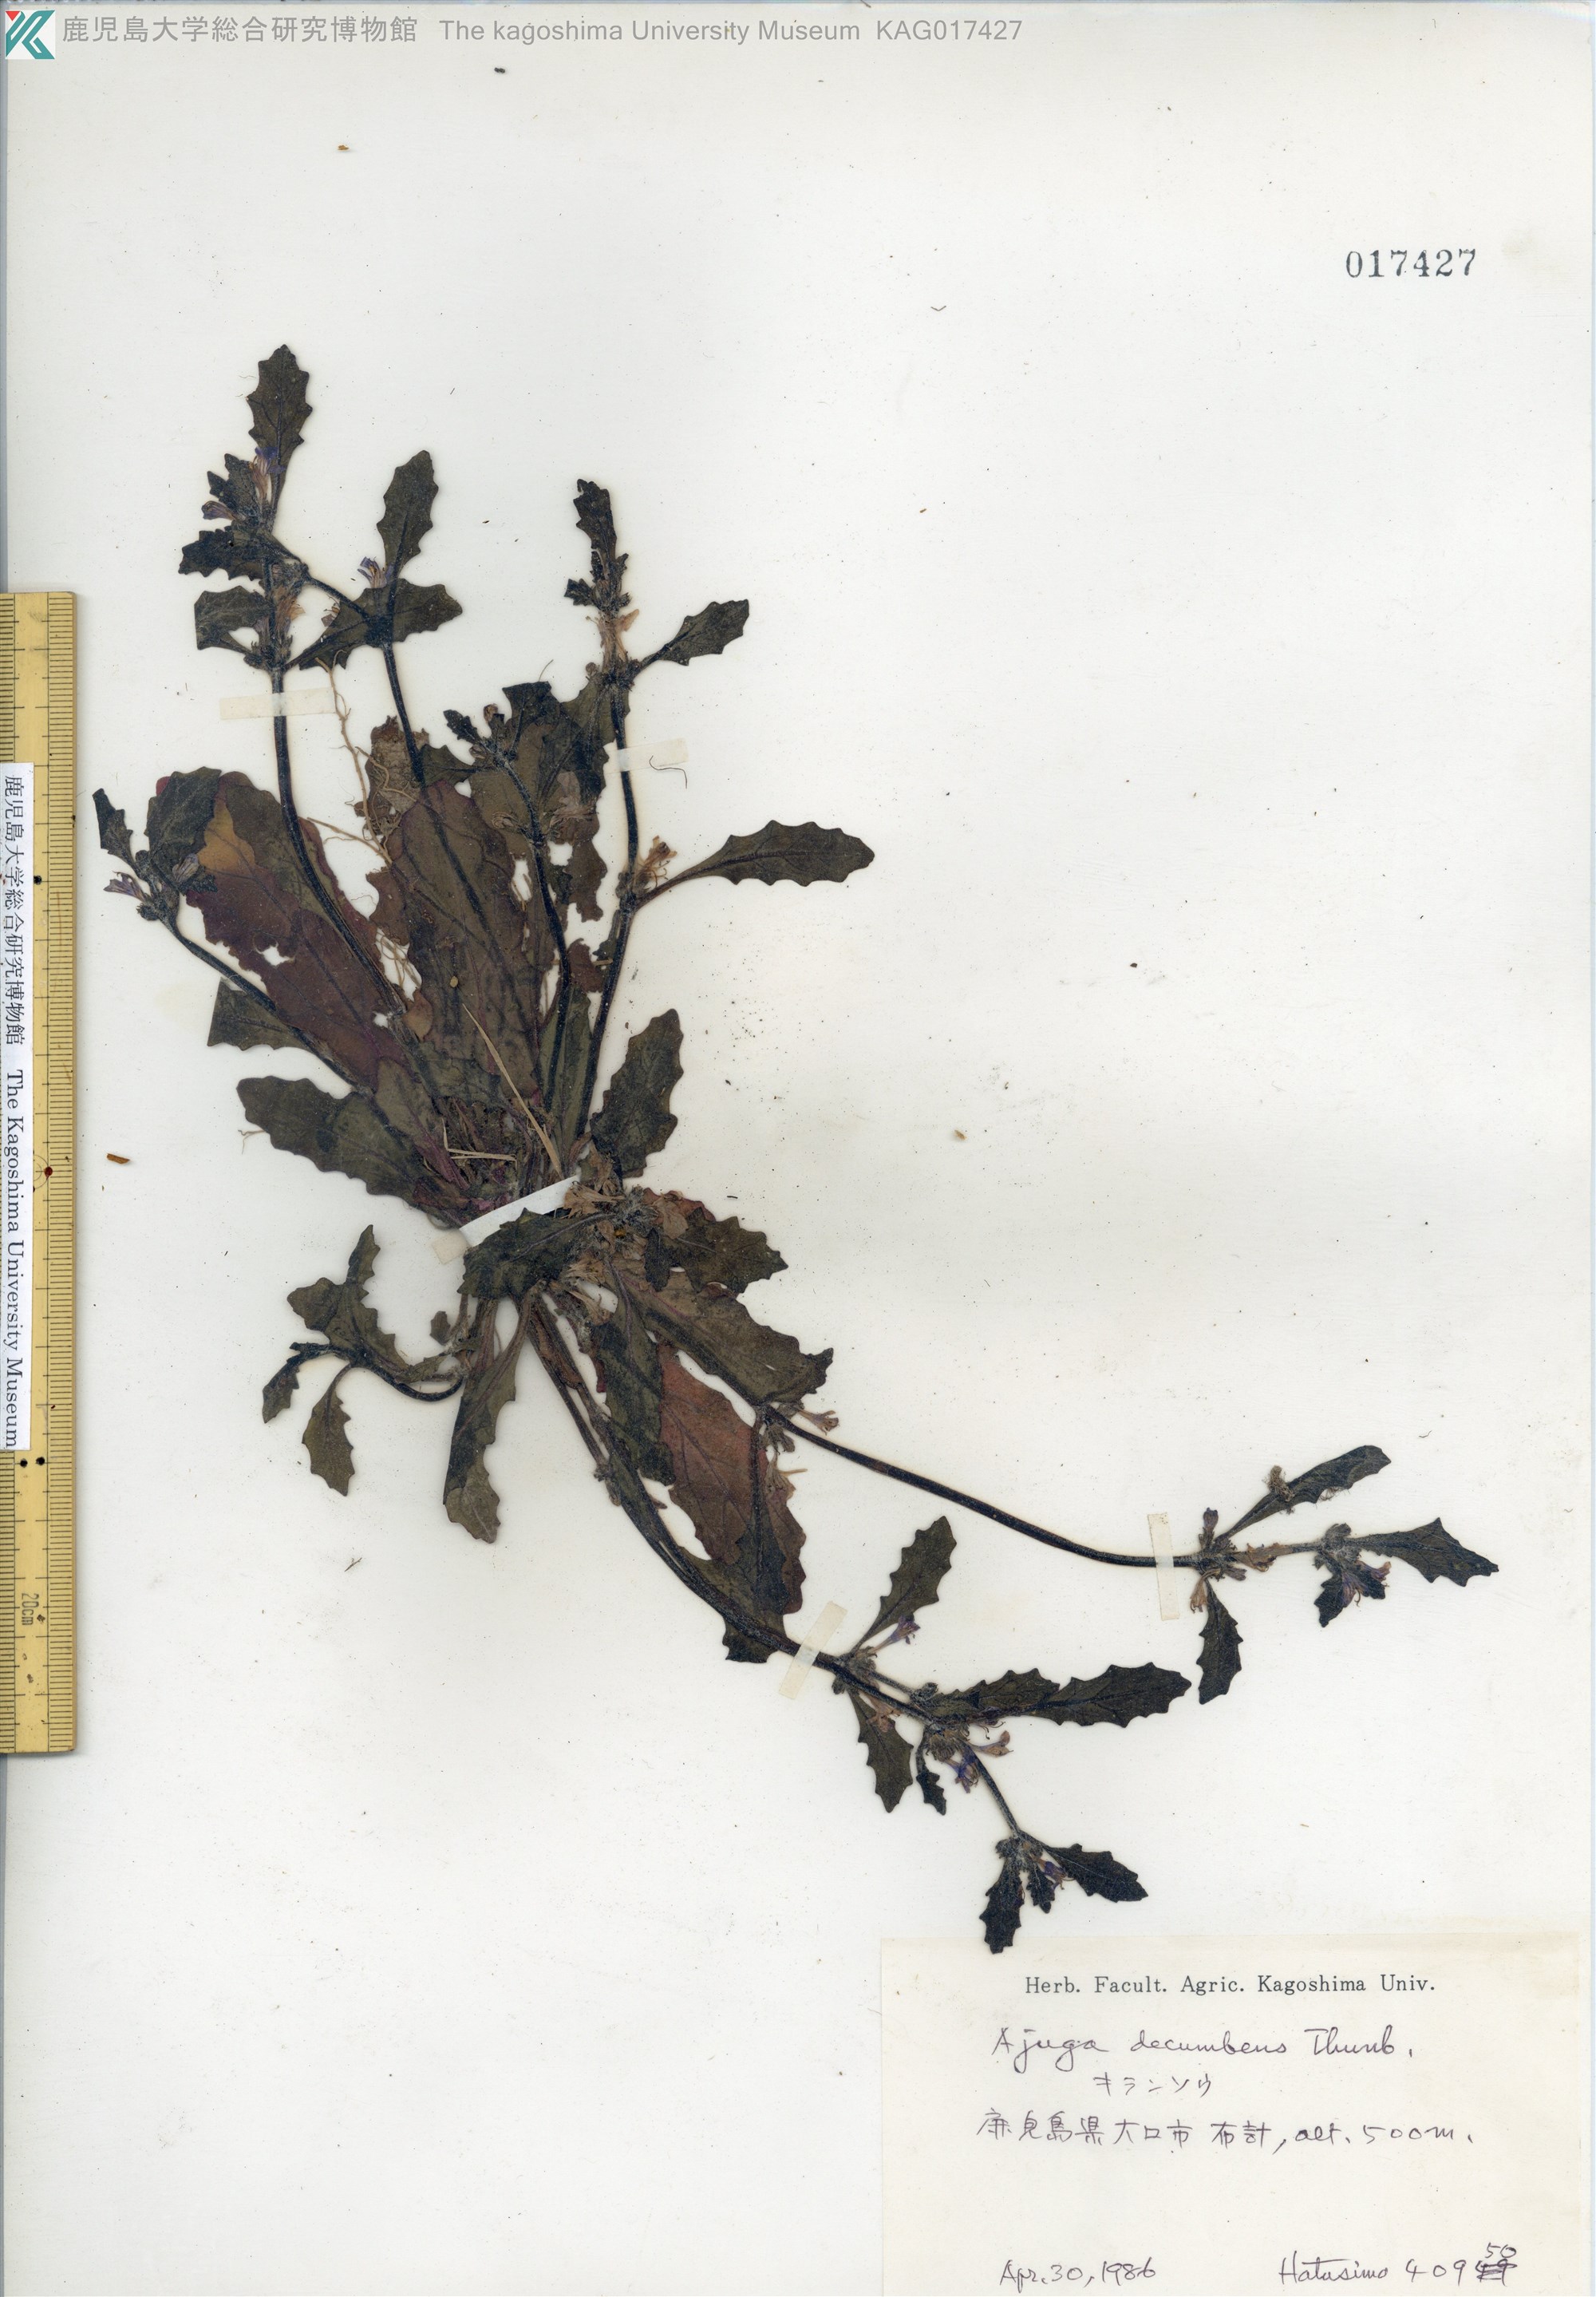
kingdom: Plantae
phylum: Tracheophyta
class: Magnoliopsida
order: Lamiales
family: Lamiaceae
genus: Ajuga
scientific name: Ajuga decumbens
